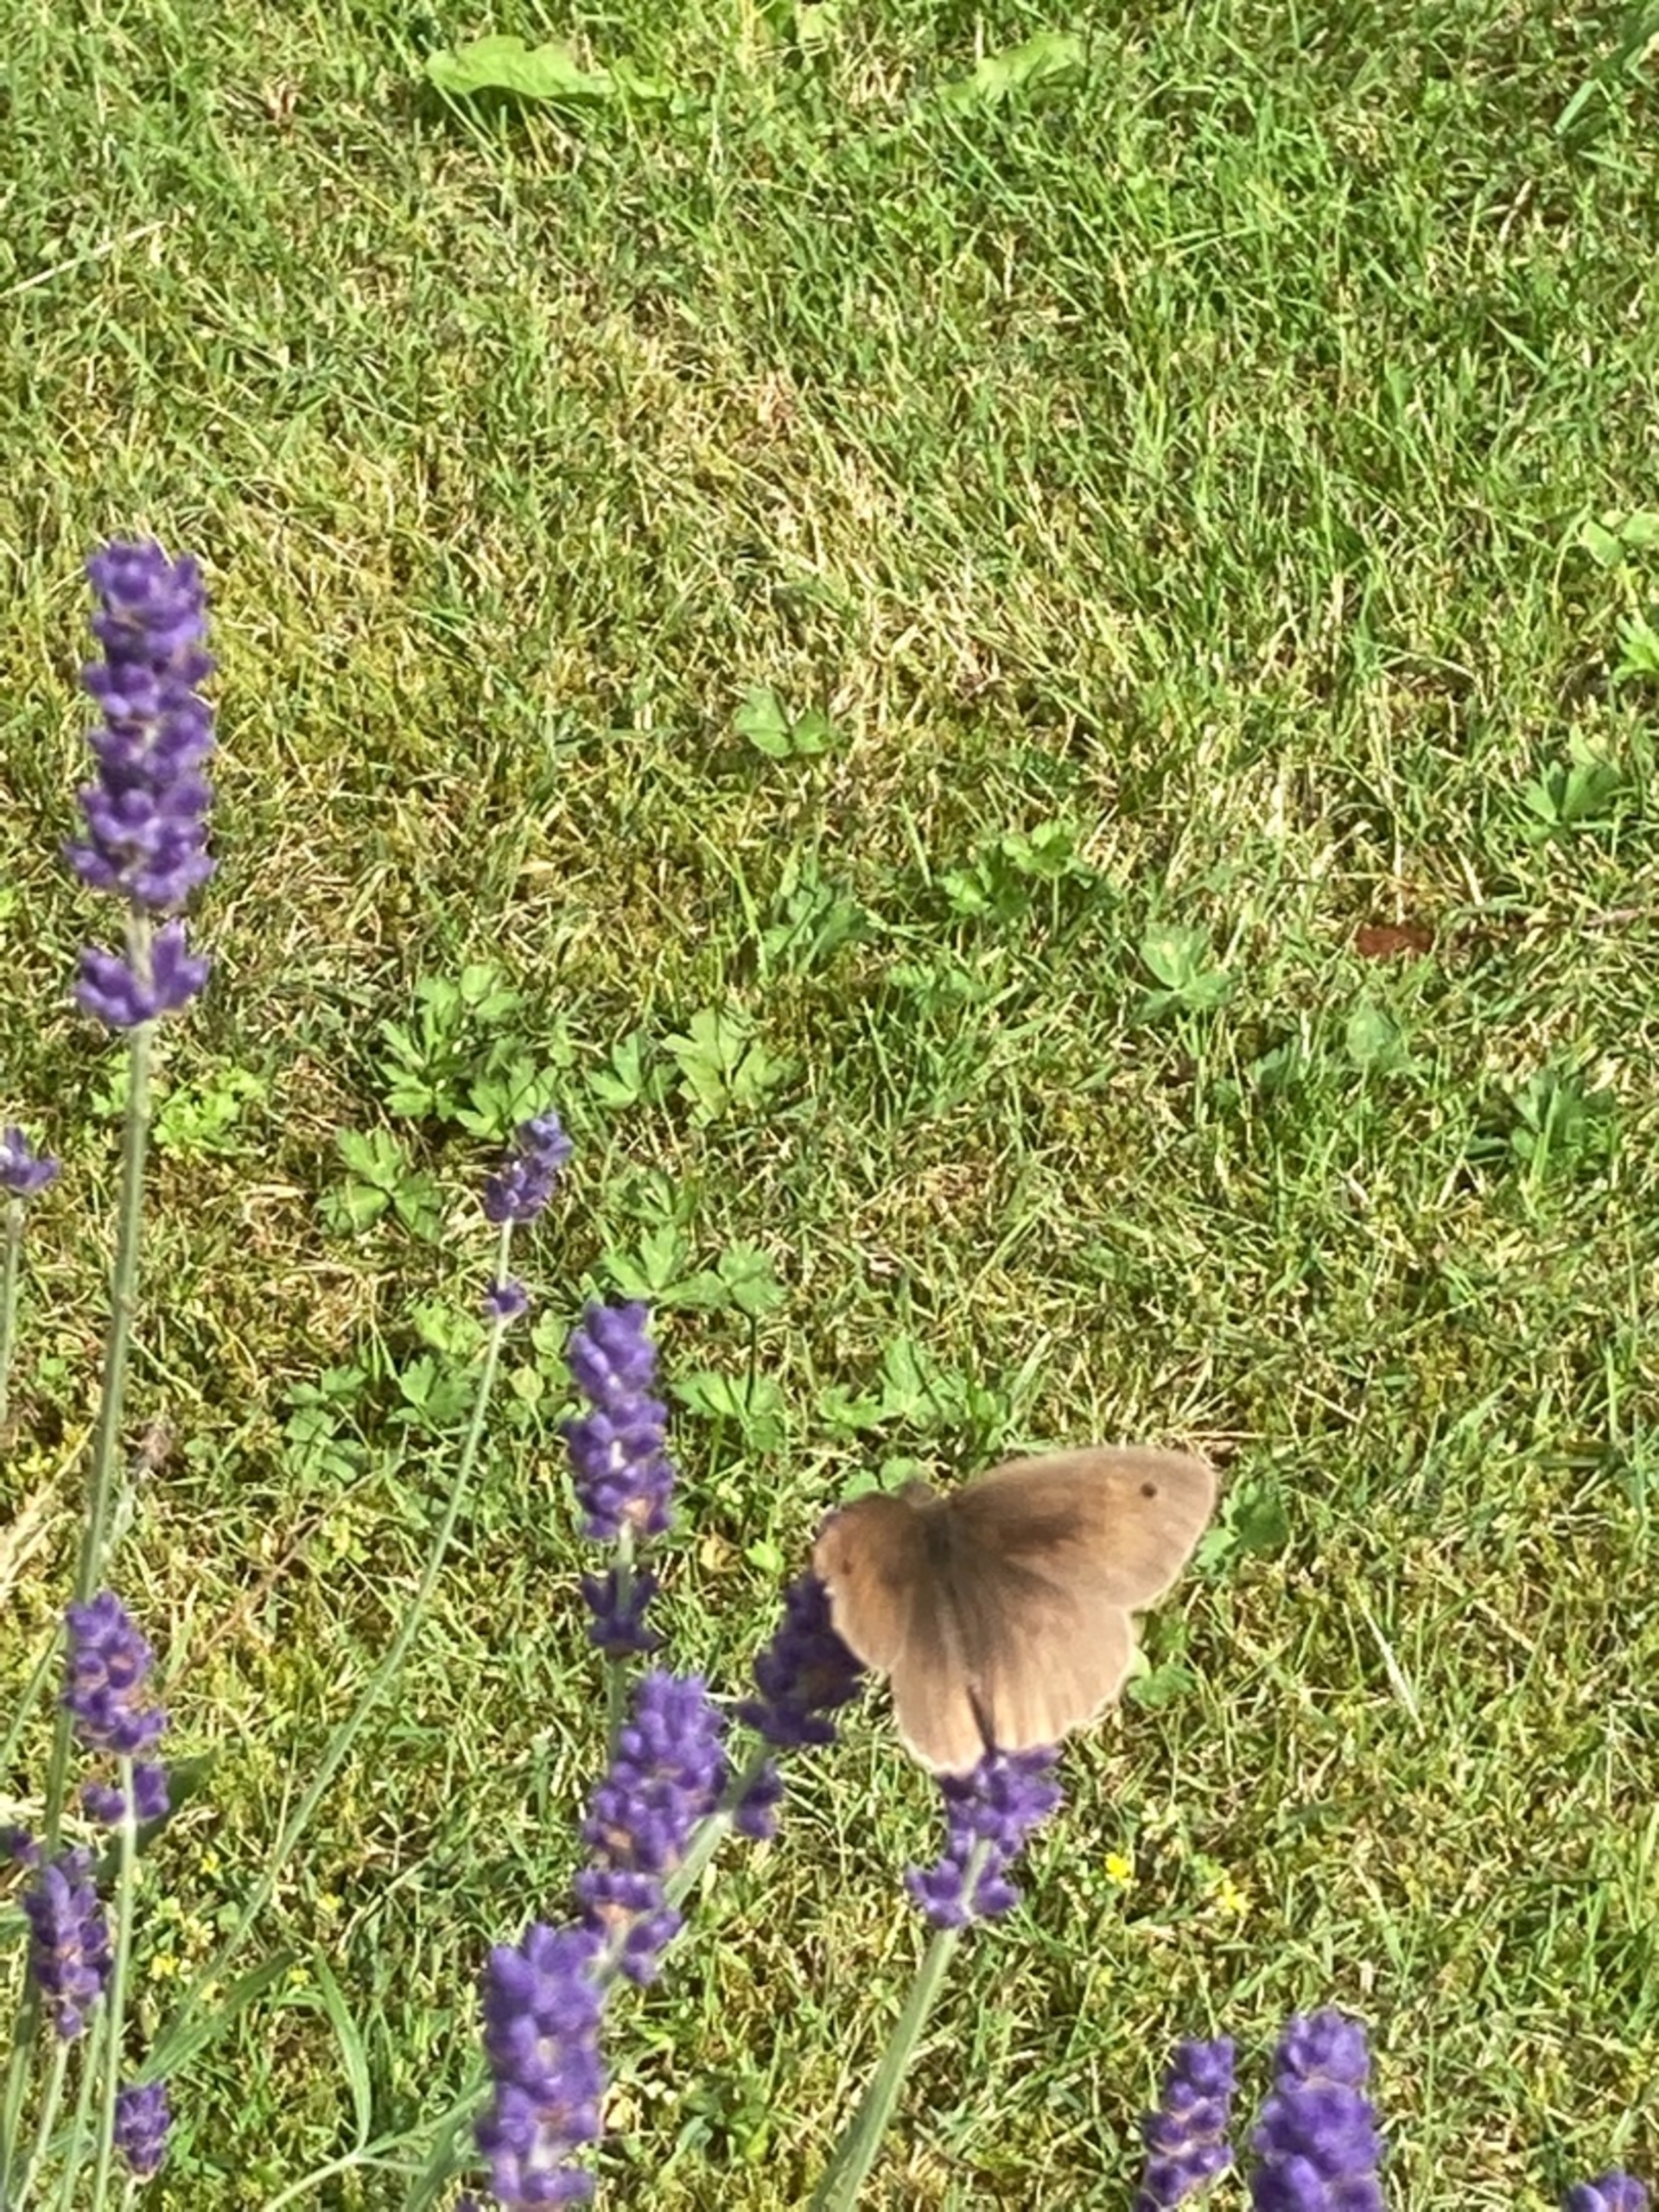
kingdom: Animalia
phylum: Arthropoda
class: Insecta
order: Lepidoptera
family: Nymphalidae
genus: Maniola
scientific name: Maniola jurtina
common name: Græsrandøje
